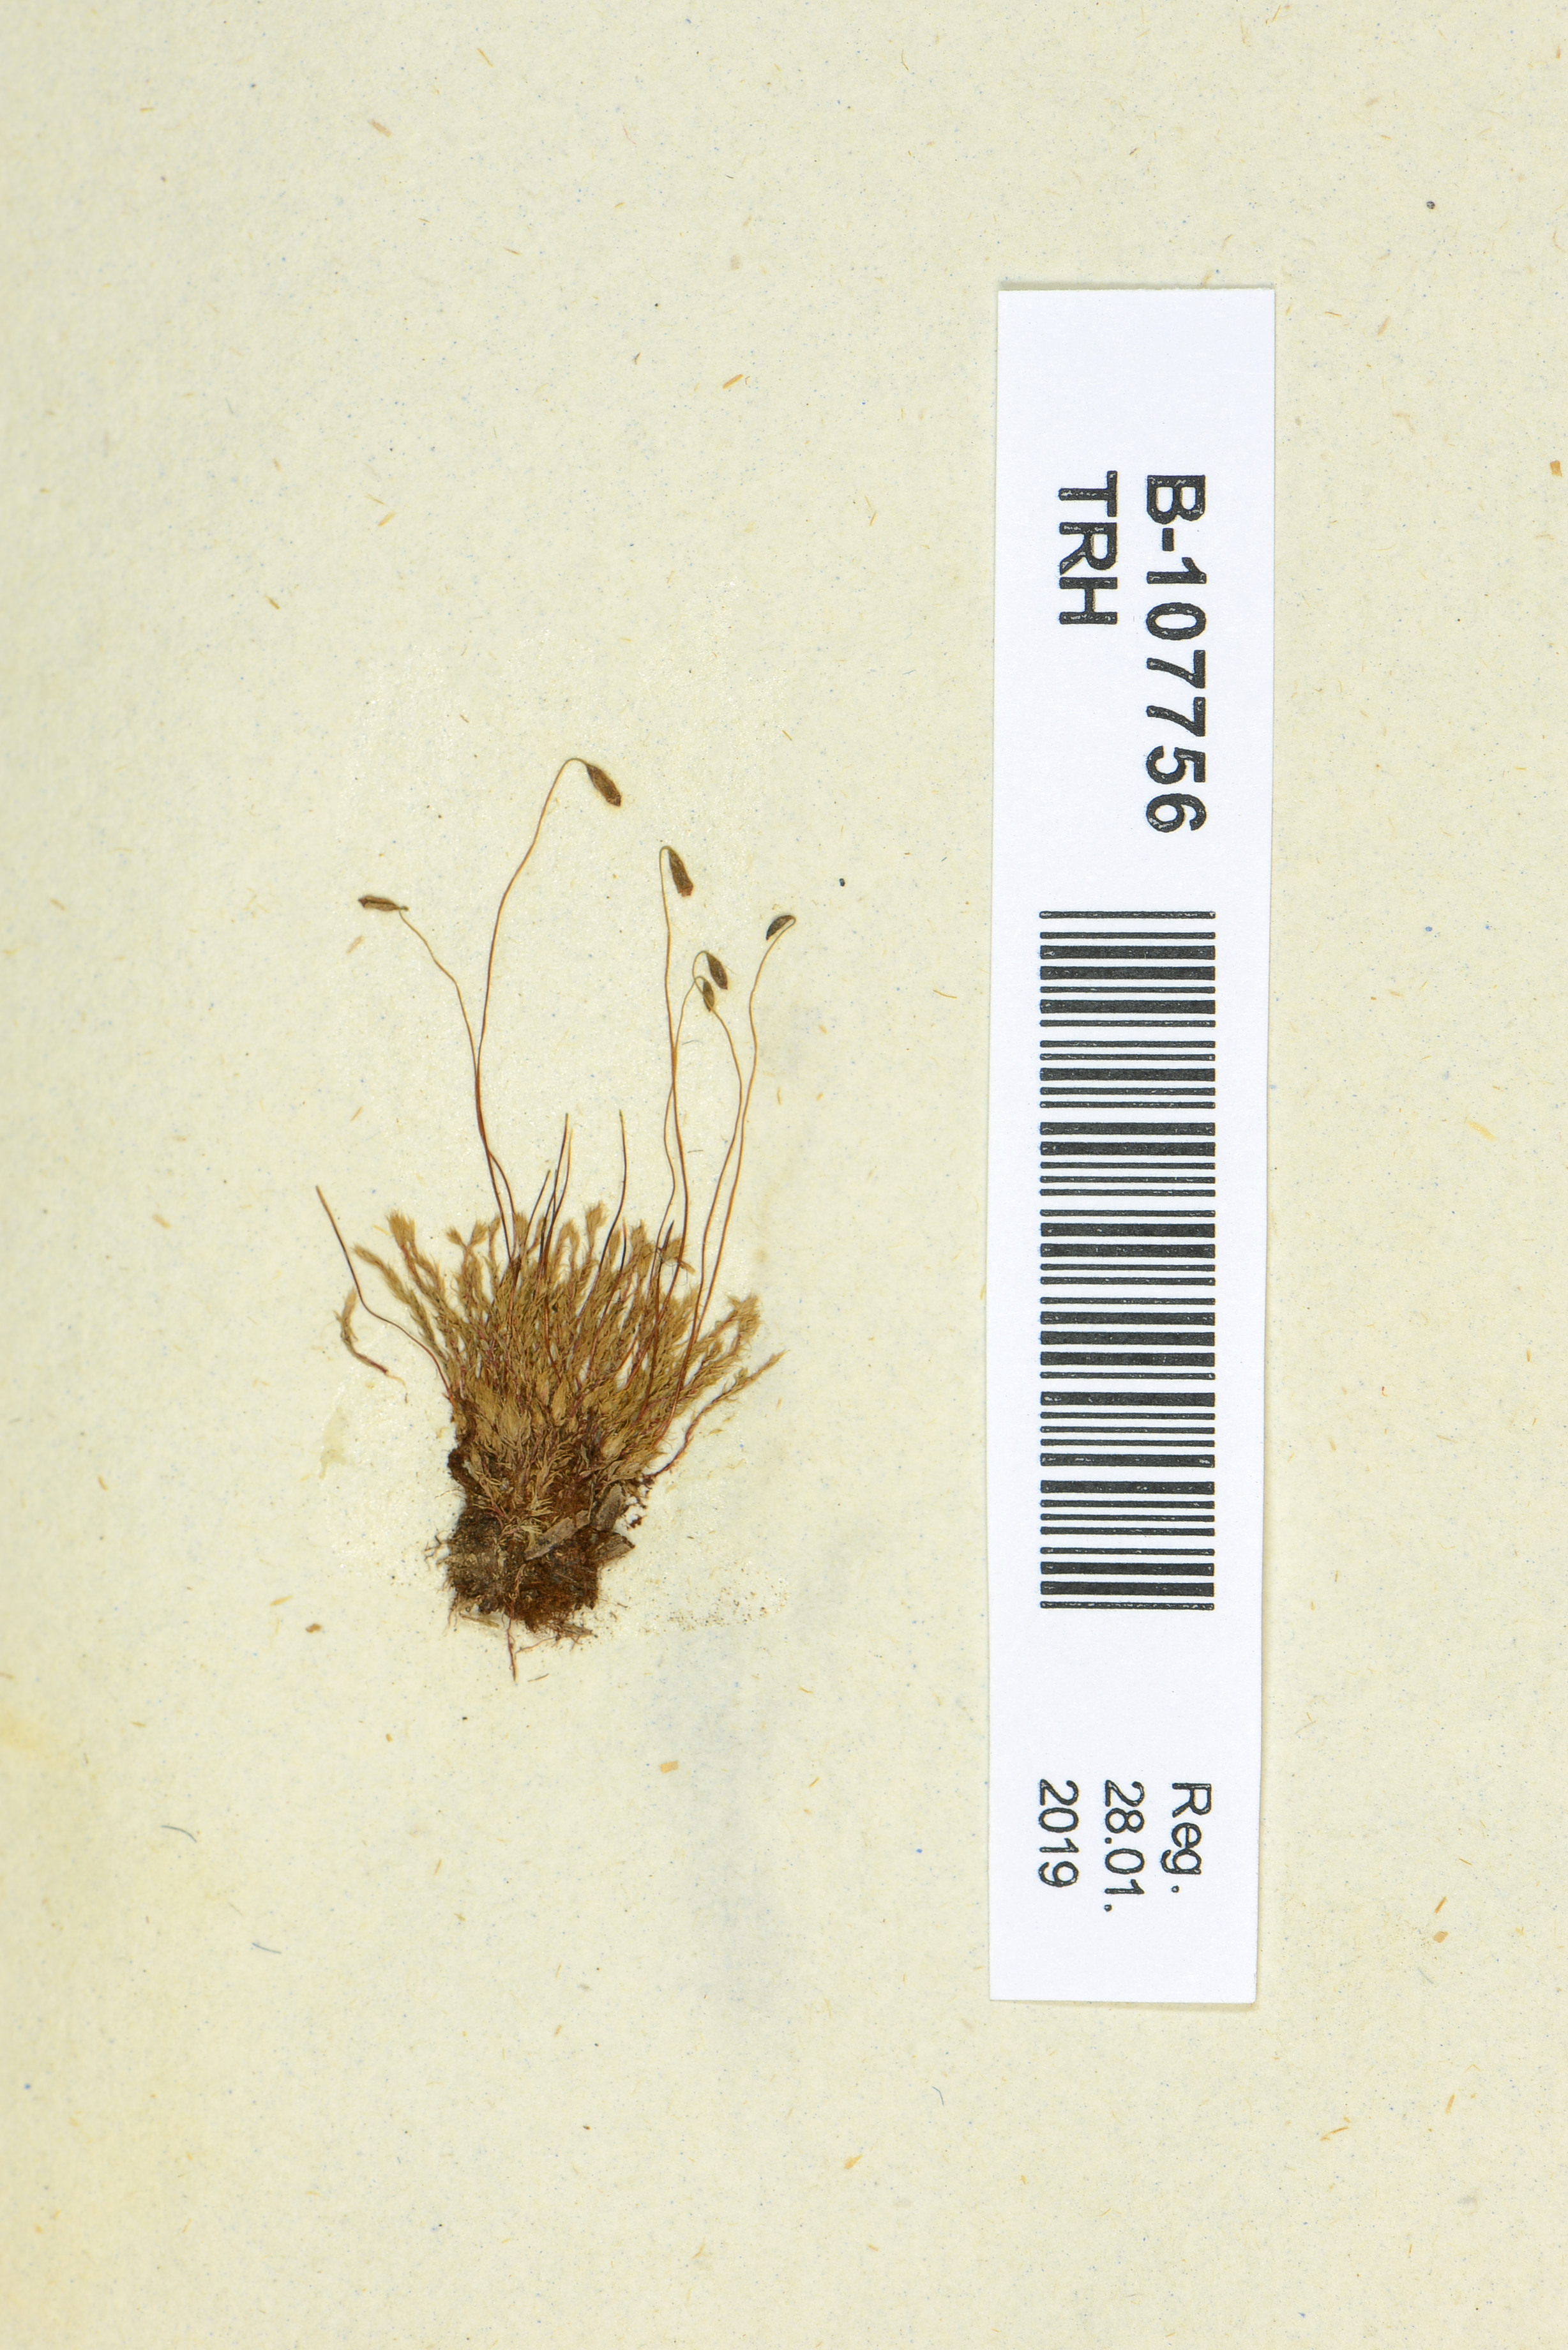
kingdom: Plantae
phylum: Bryophyta
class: Bryopsida
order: Bryales
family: Bryaceae
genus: Ptychostomum
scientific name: Ptychostomum compactum
